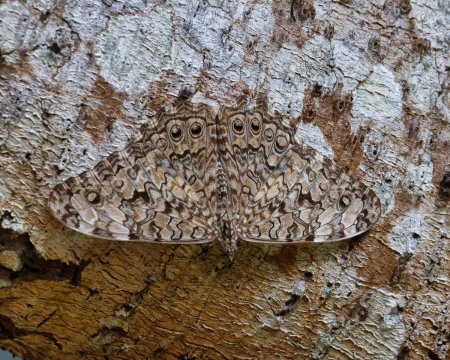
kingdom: Animalia
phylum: Arthropoda
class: Insecta
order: Lepidoptera
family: Nymphalidae
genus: Hamadryas
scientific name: Hamadryas februa
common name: Gray Cracker
